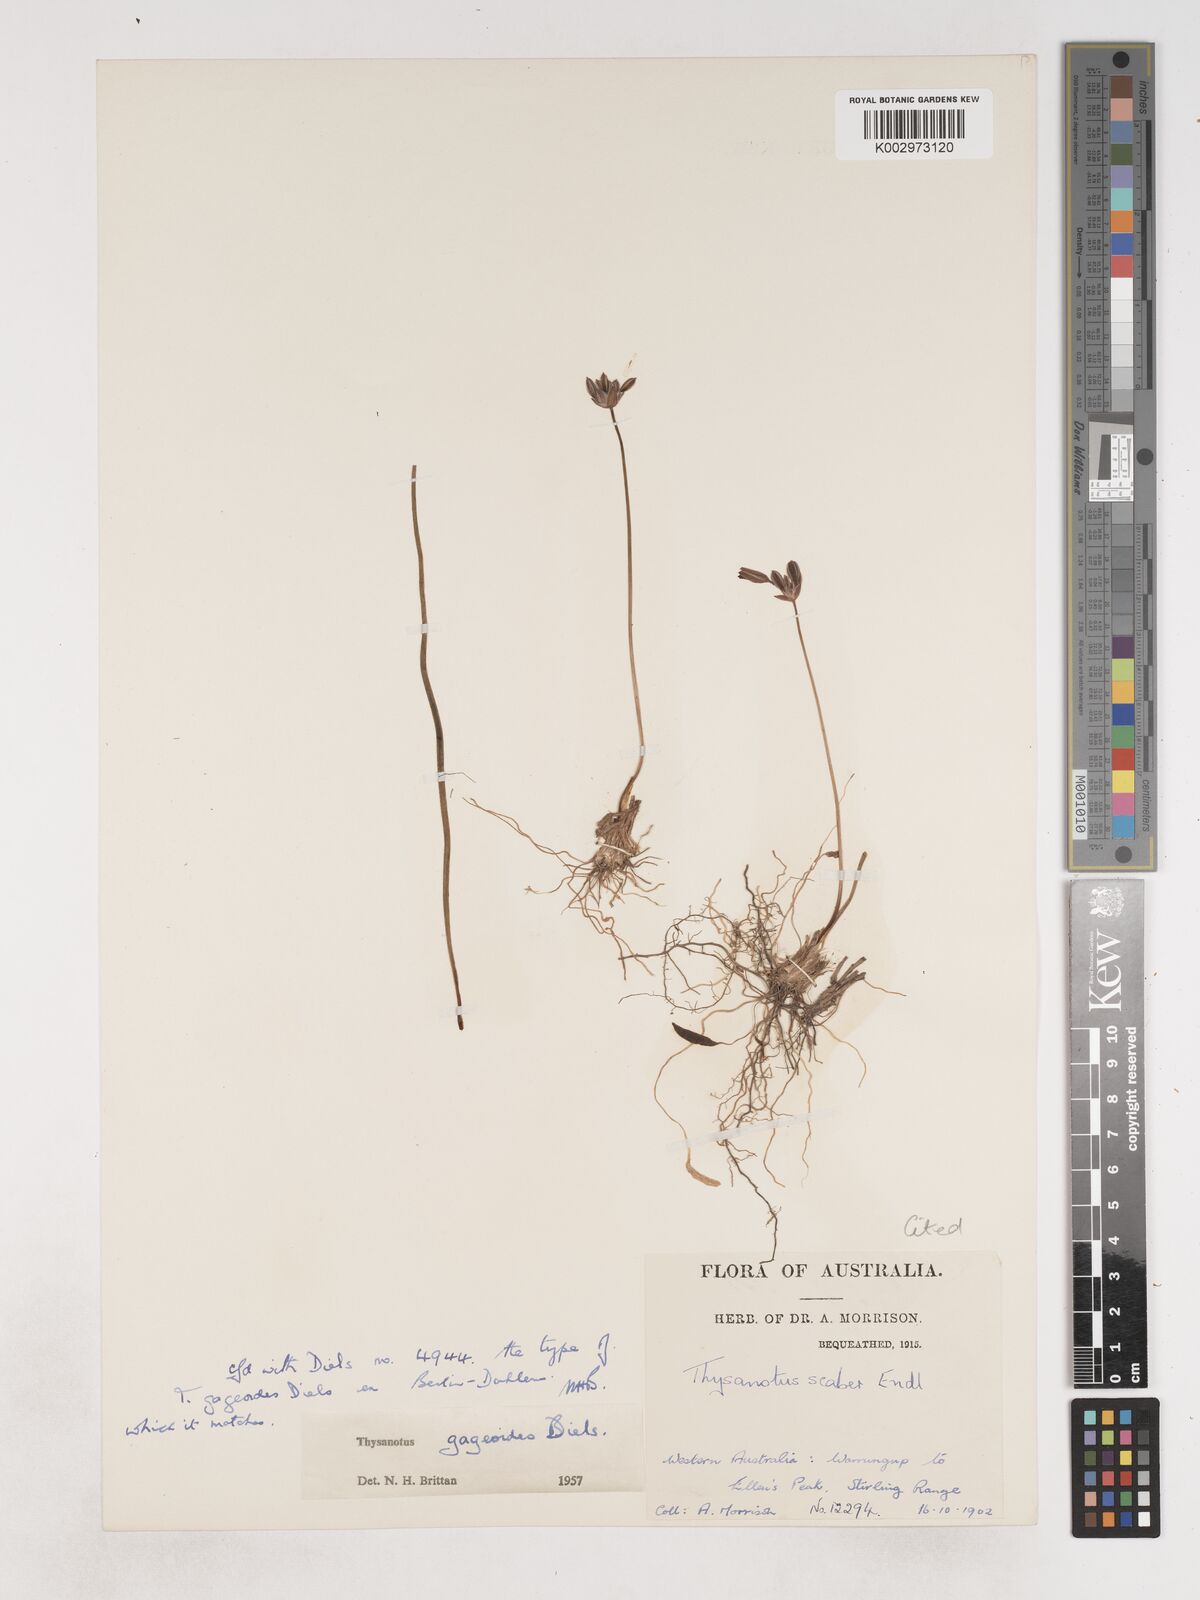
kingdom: Plantae
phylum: Tracheophyta
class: Liliopsida
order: Asparagales
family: Asparagaceae
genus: Thysanotus
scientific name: Thysanotus gageoides
